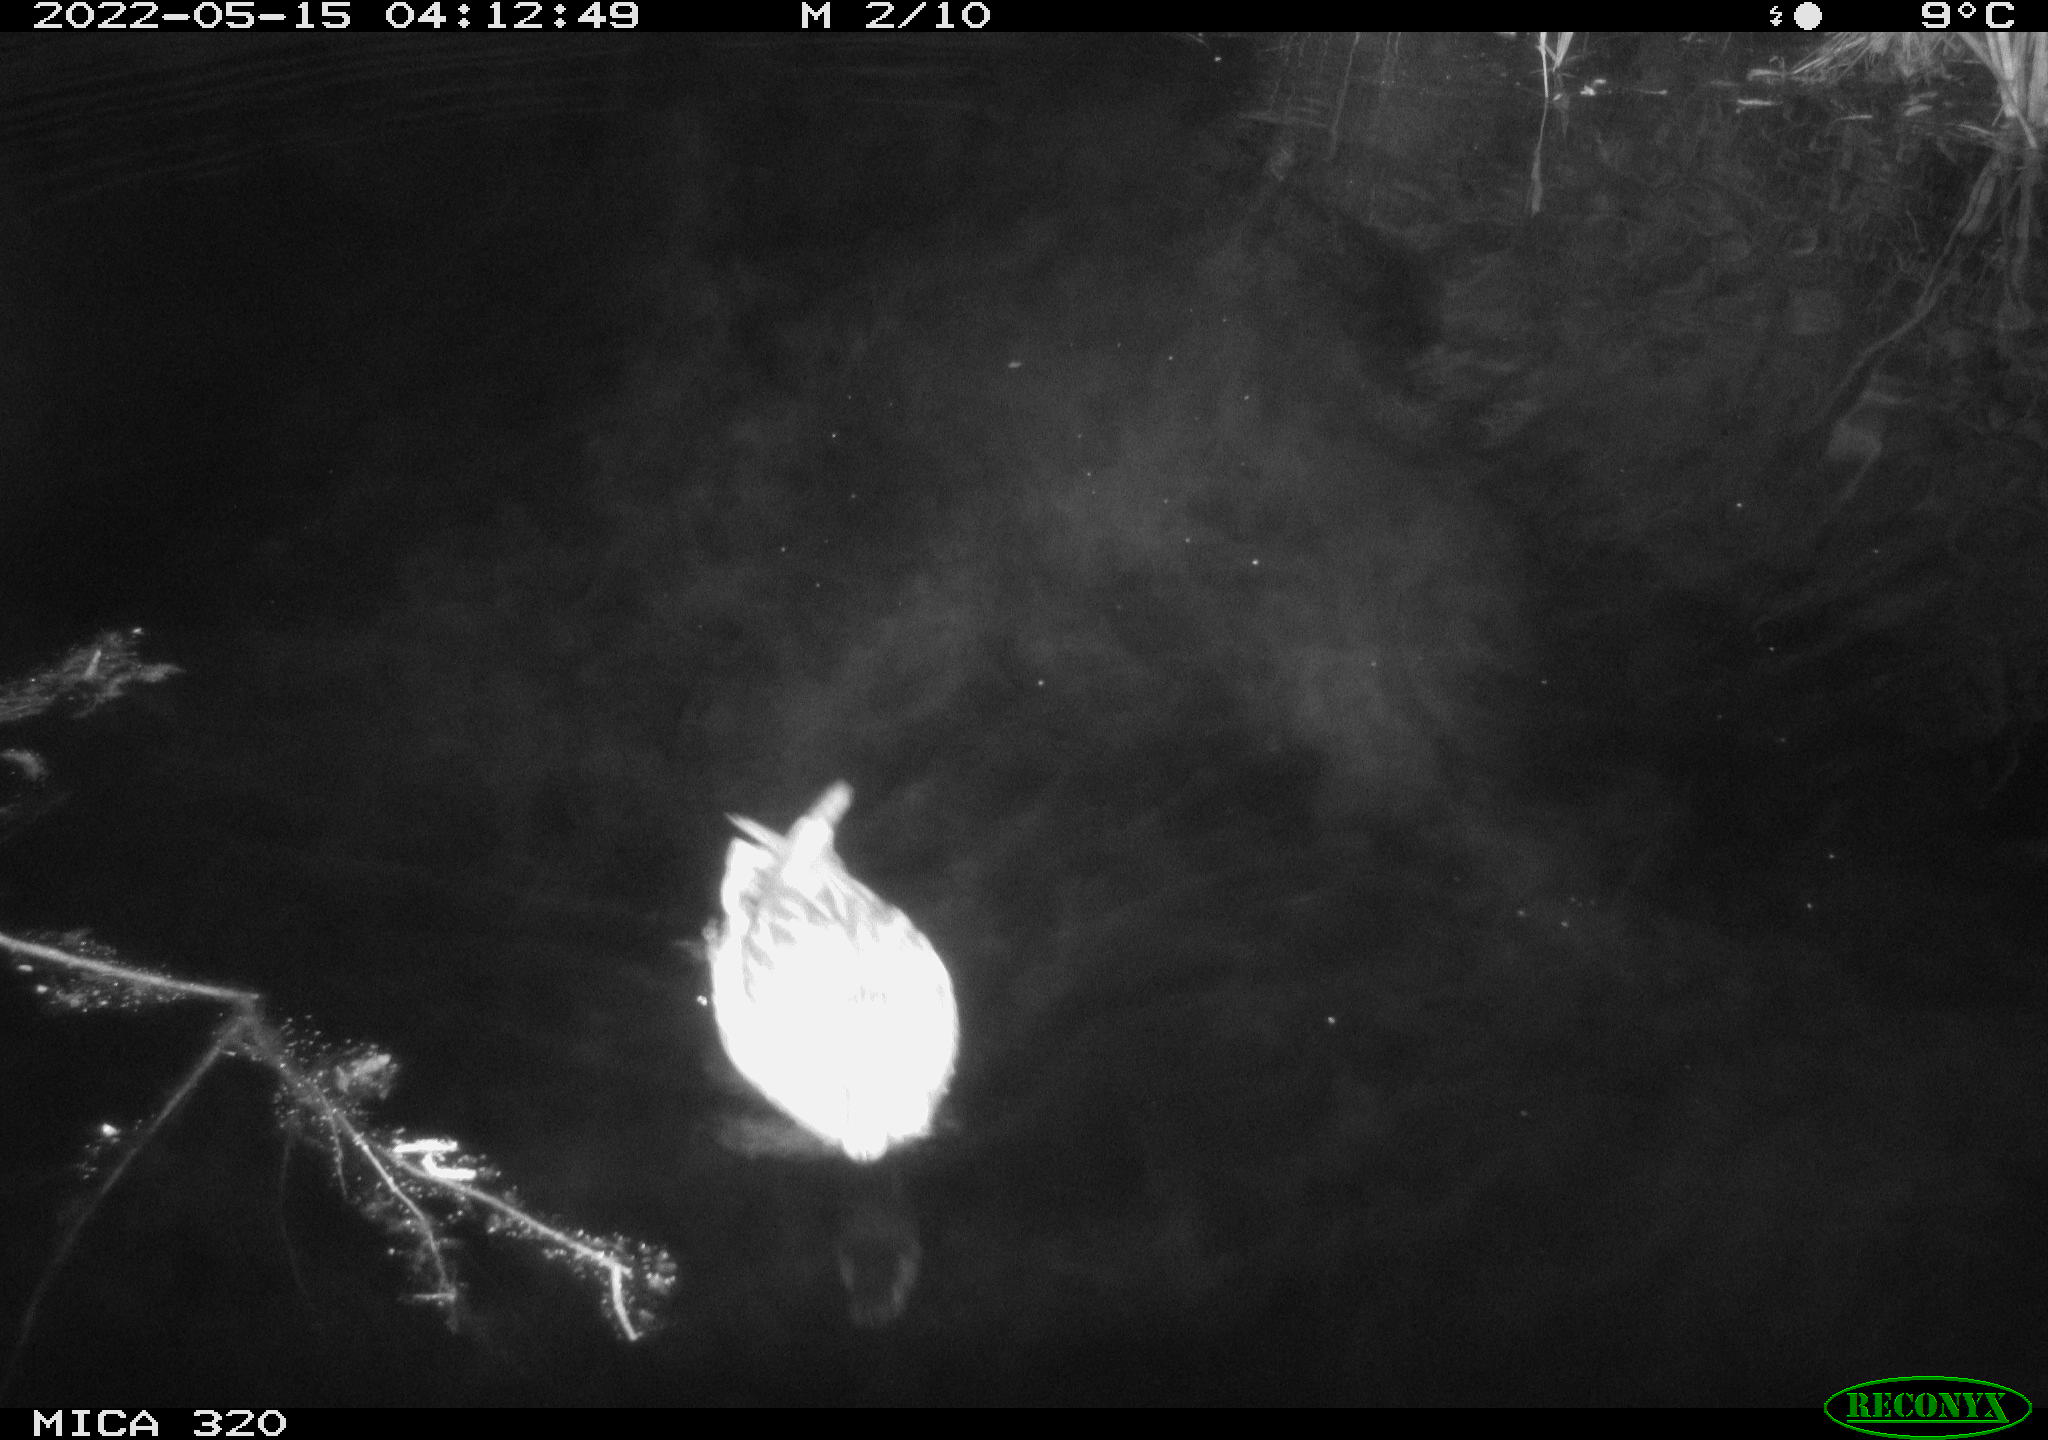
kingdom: Animalia
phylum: Chordata
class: Aves
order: Anseriformes
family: Anatidae
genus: Anas
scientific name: Anas platyrhynchos
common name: Mallard
